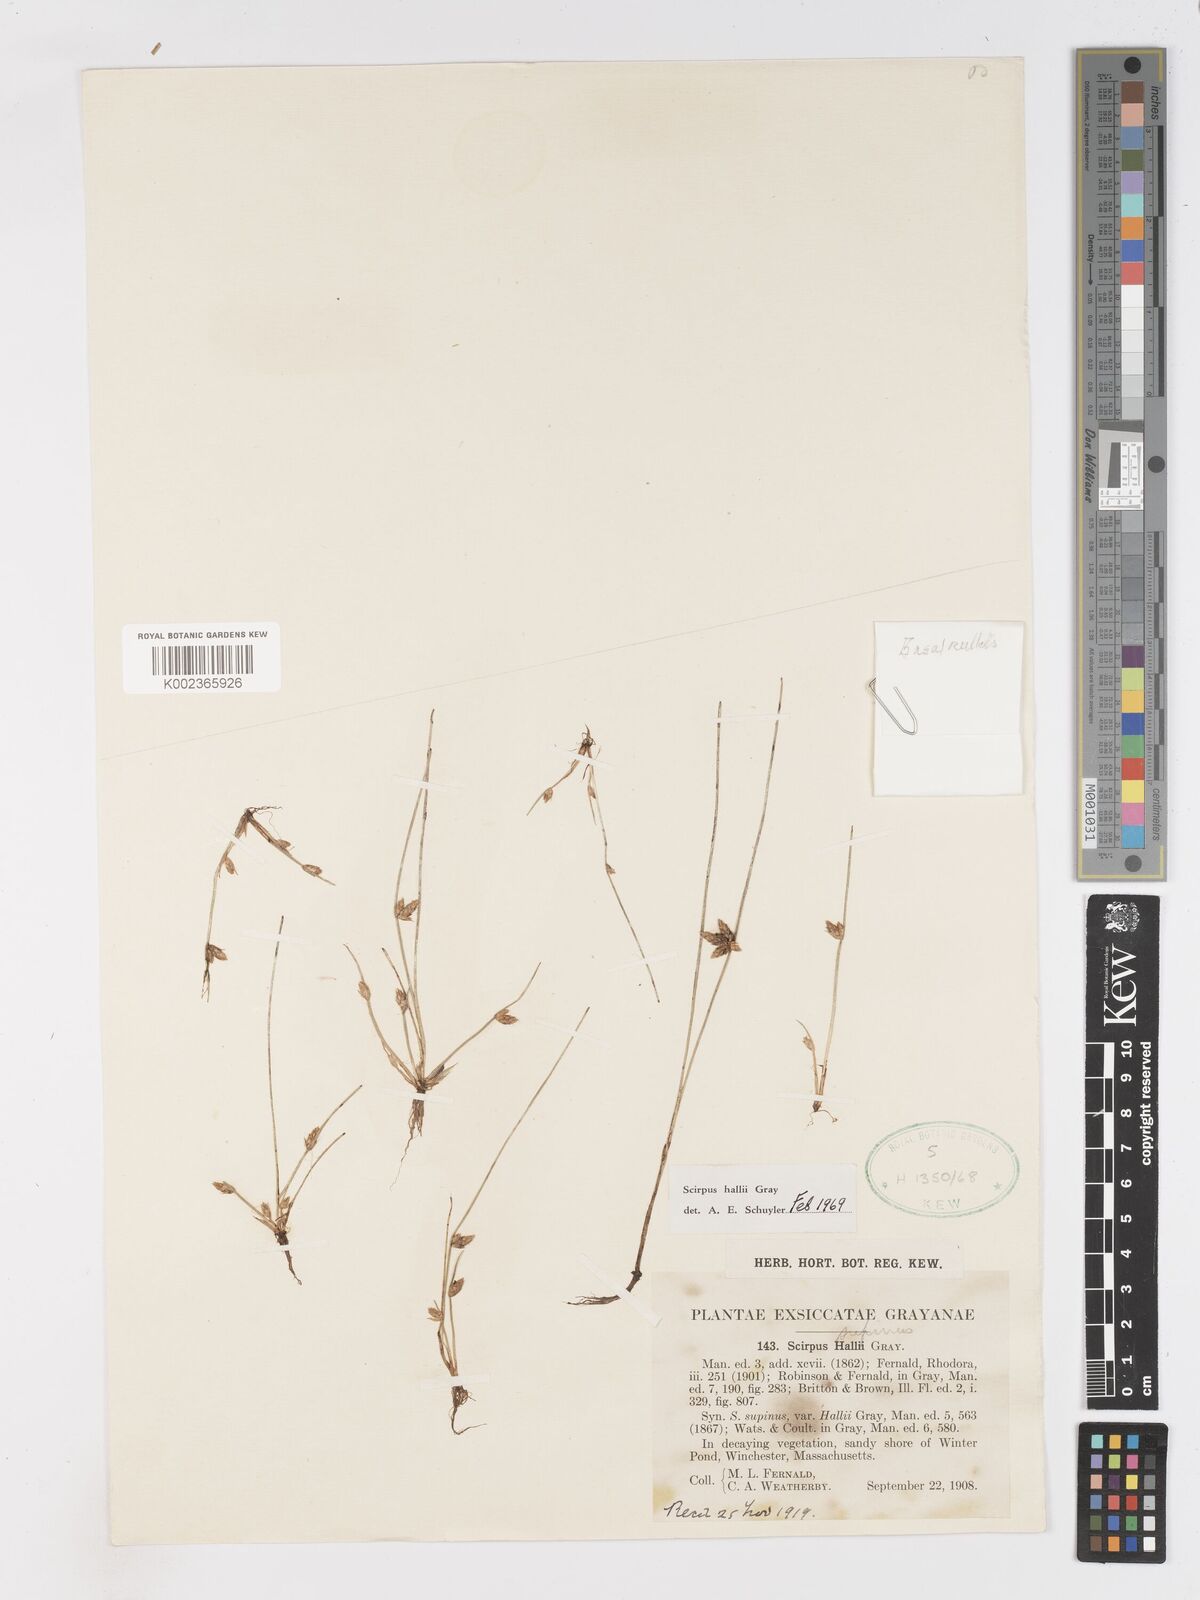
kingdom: Plantae
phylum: Tracheophyta
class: Liliopsida
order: Poales
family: Cyperaceae
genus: Schoenoplectiella
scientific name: Schoenoplectiella hallii
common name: Hall's bullrush
